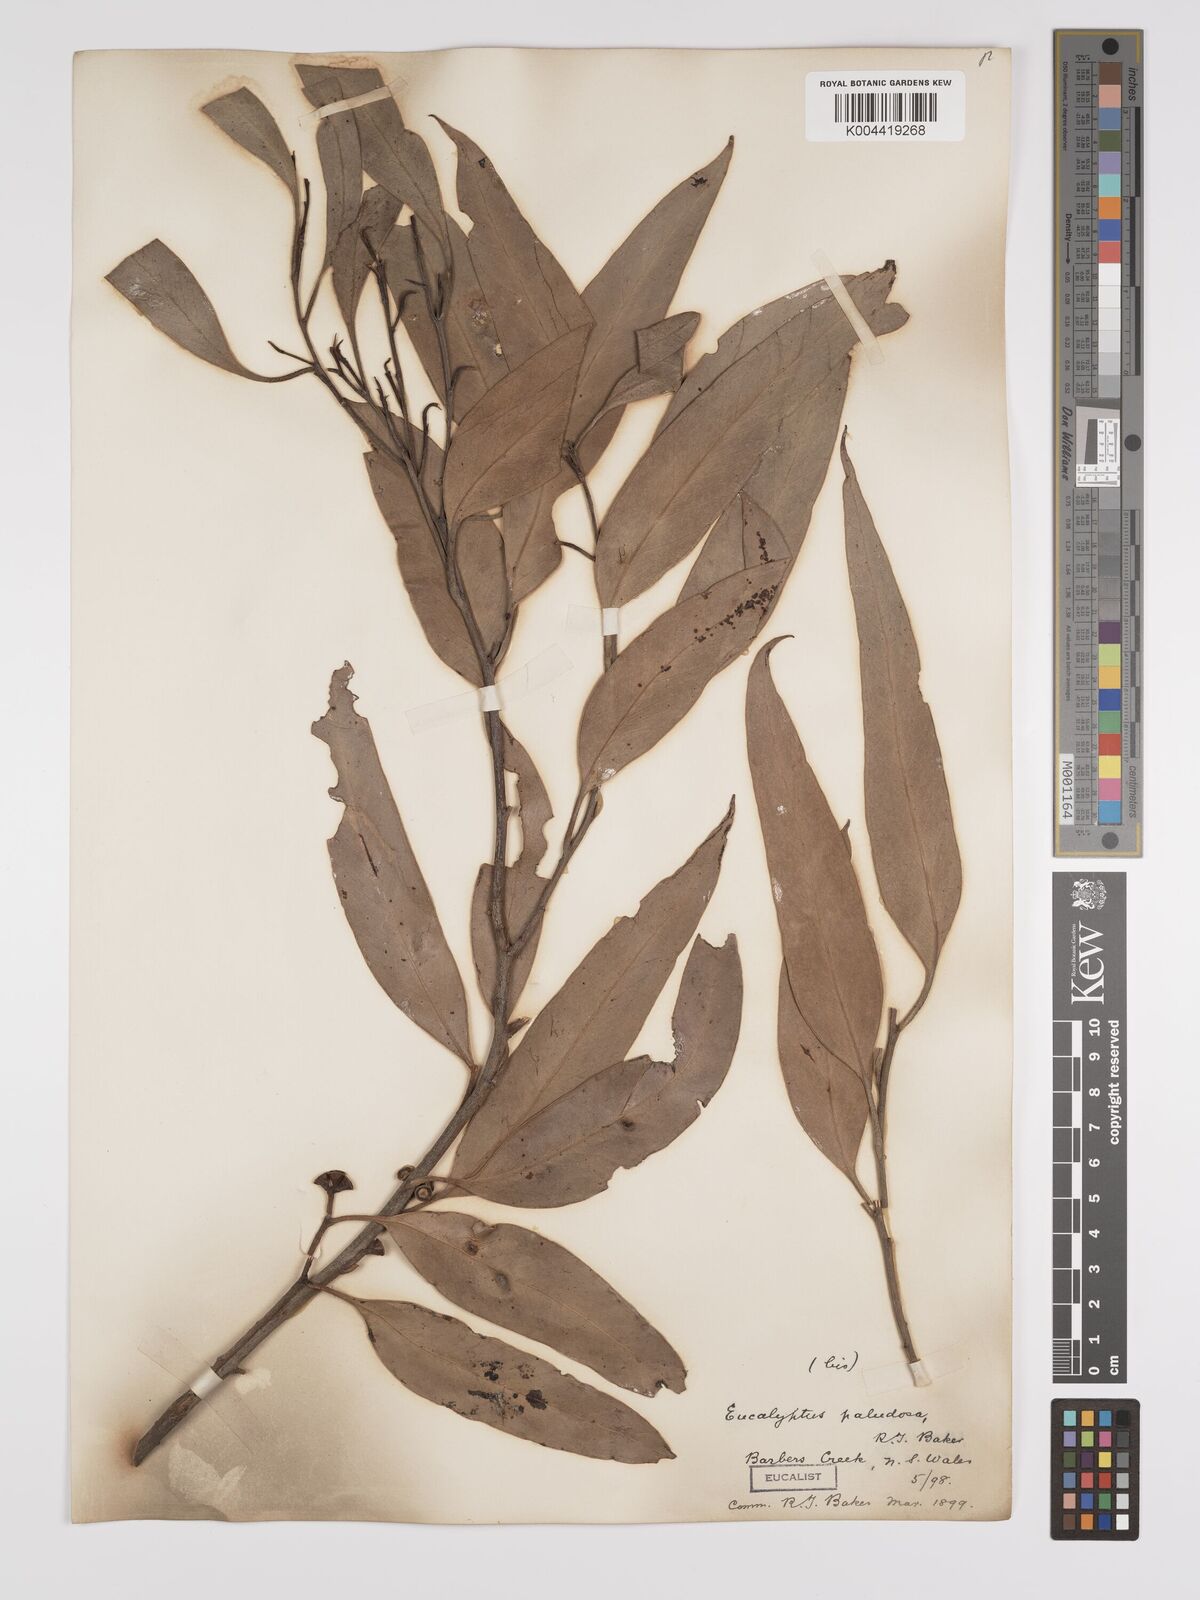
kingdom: Plantae
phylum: Tracheophyta
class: Magnoliopsida
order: Myrtales
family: Myrtaceae
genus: Eucalyptus
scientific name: Eucalyptus ovata
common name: Black-gum
